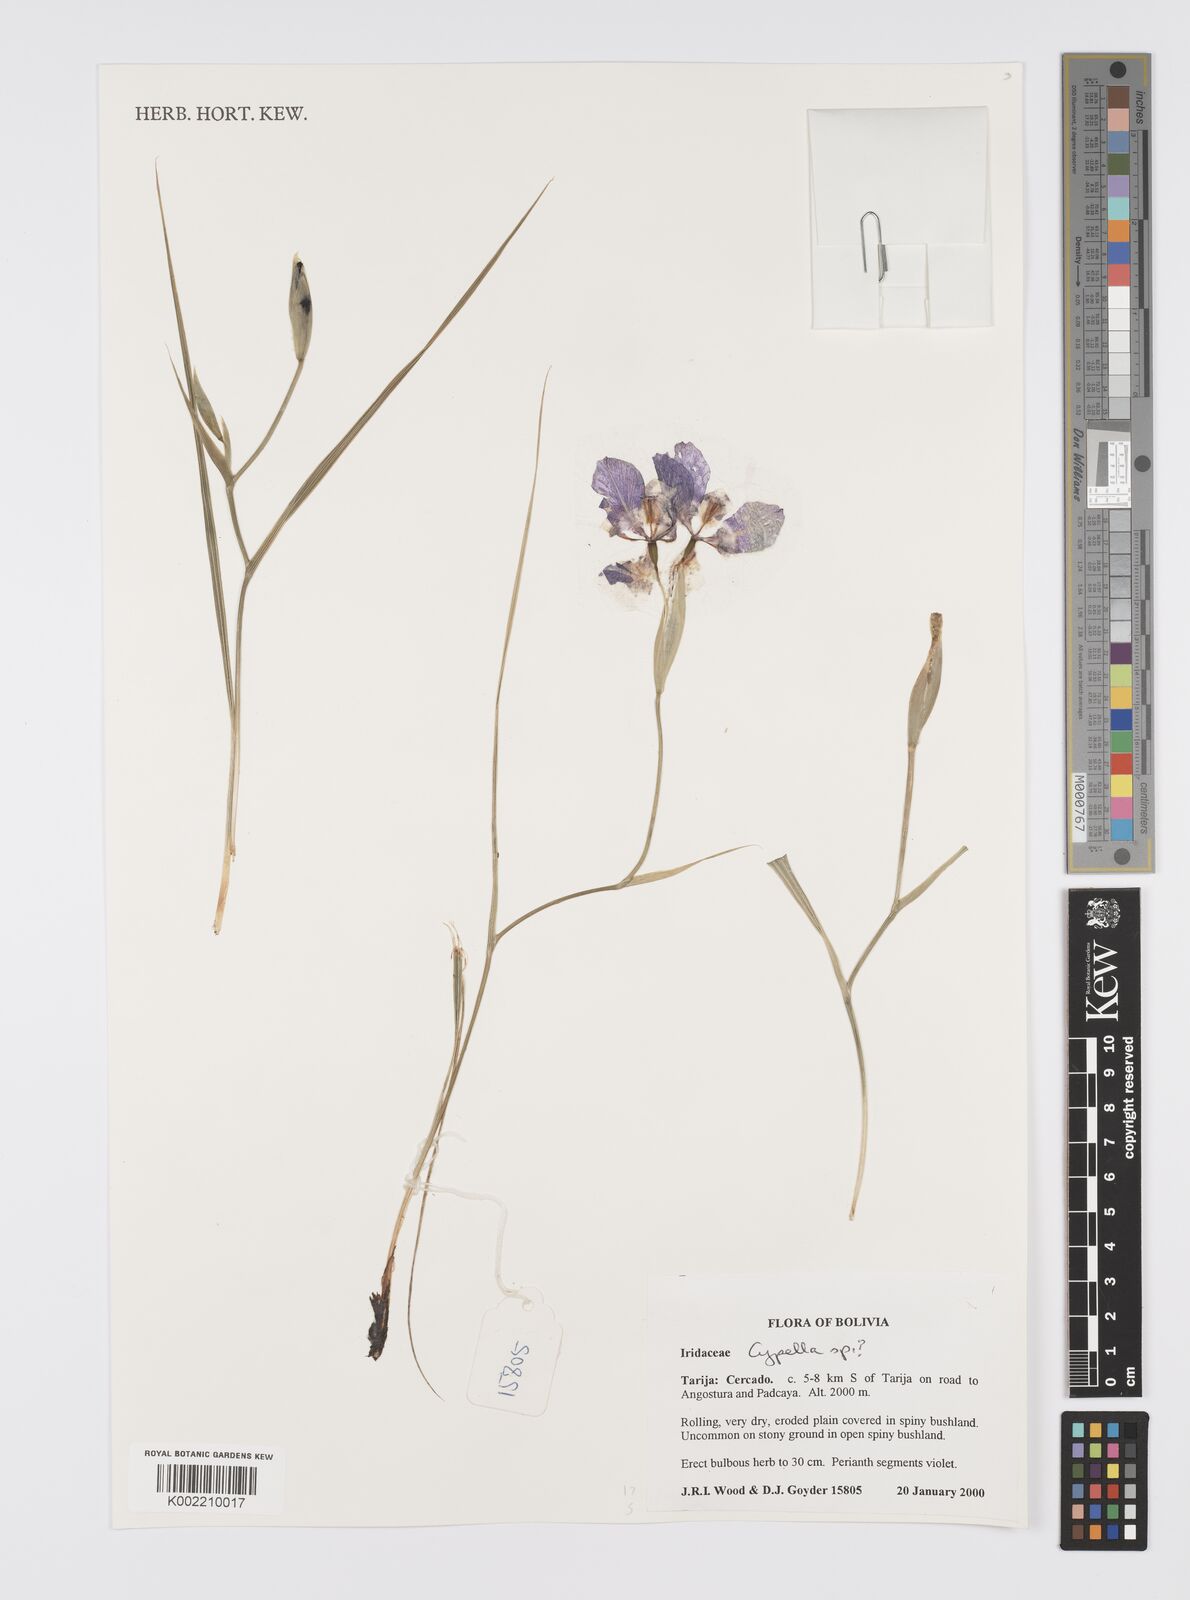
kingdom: Plantae
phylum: Tracheophyta
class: Liliopsida
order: Asparagales
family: Iridaceae
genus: Cypella
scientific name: Cypella
